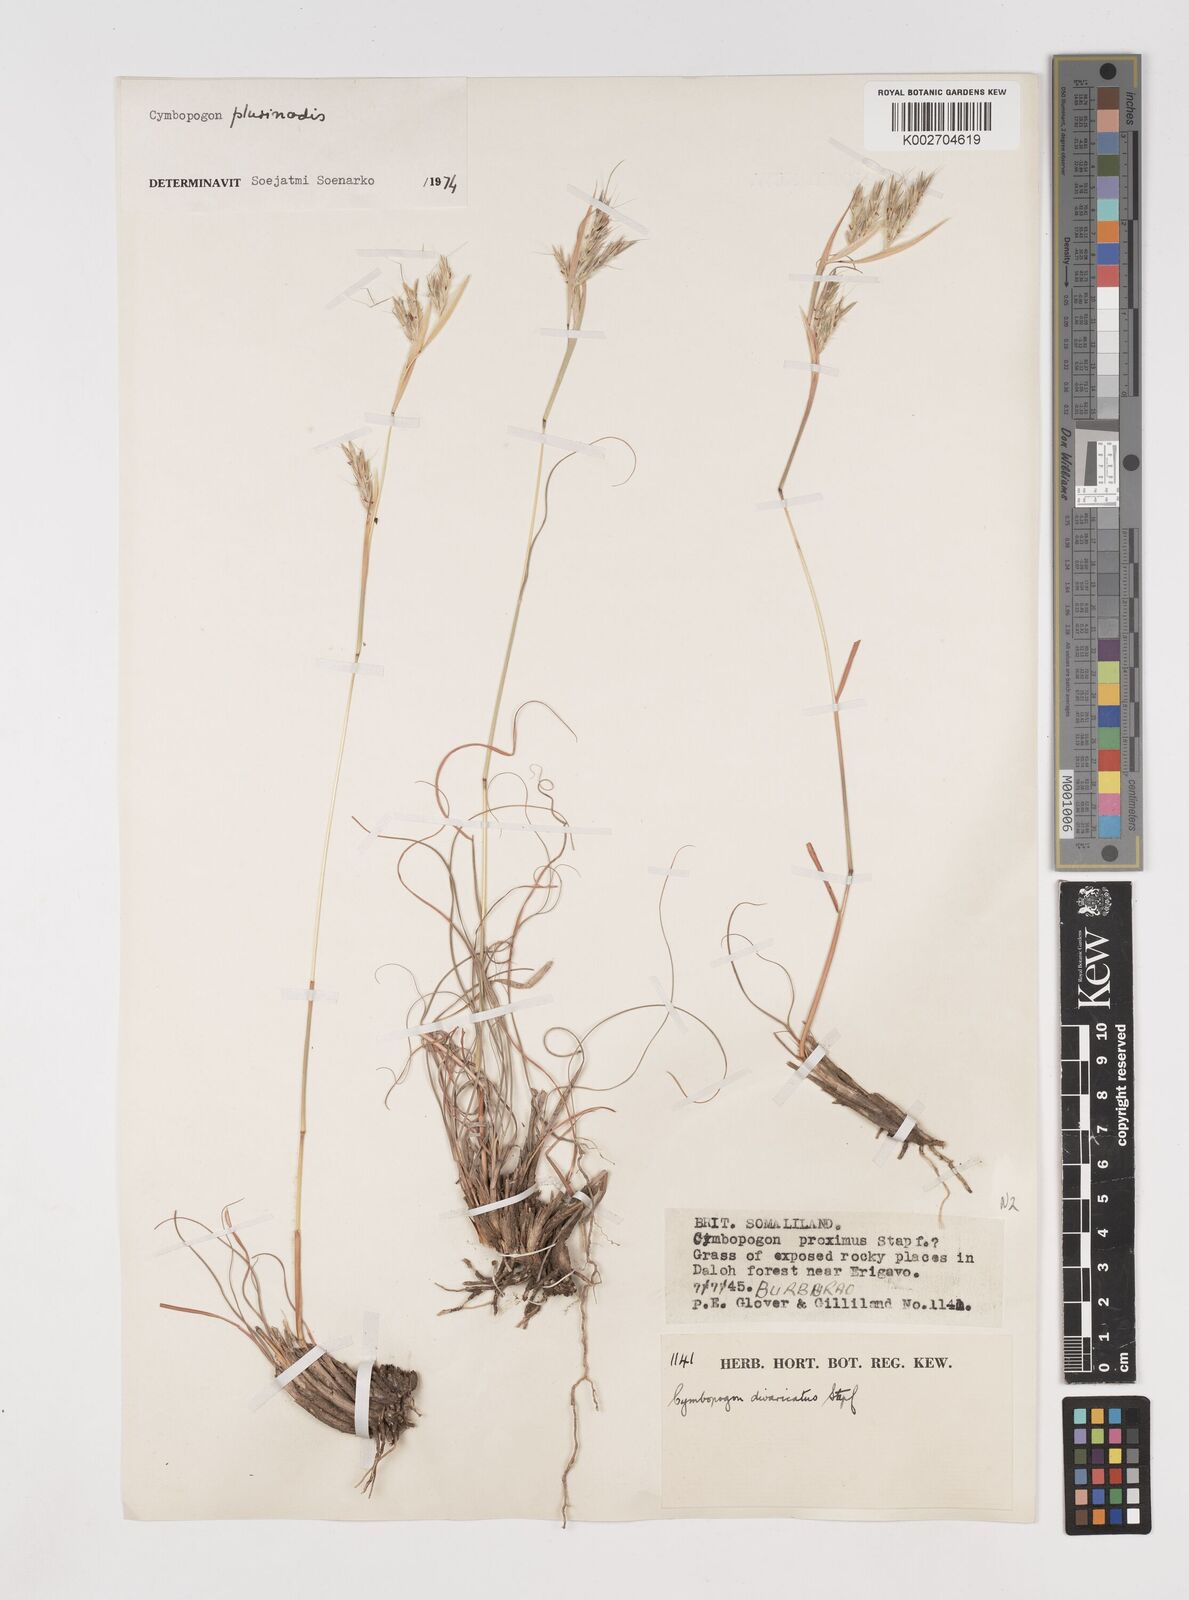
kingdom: Plantae
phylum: Tracheophyta
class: Liliopsida
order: Poales
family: Poaceae
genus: Cymbopogon
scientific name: Cymbopogon pospischilii
